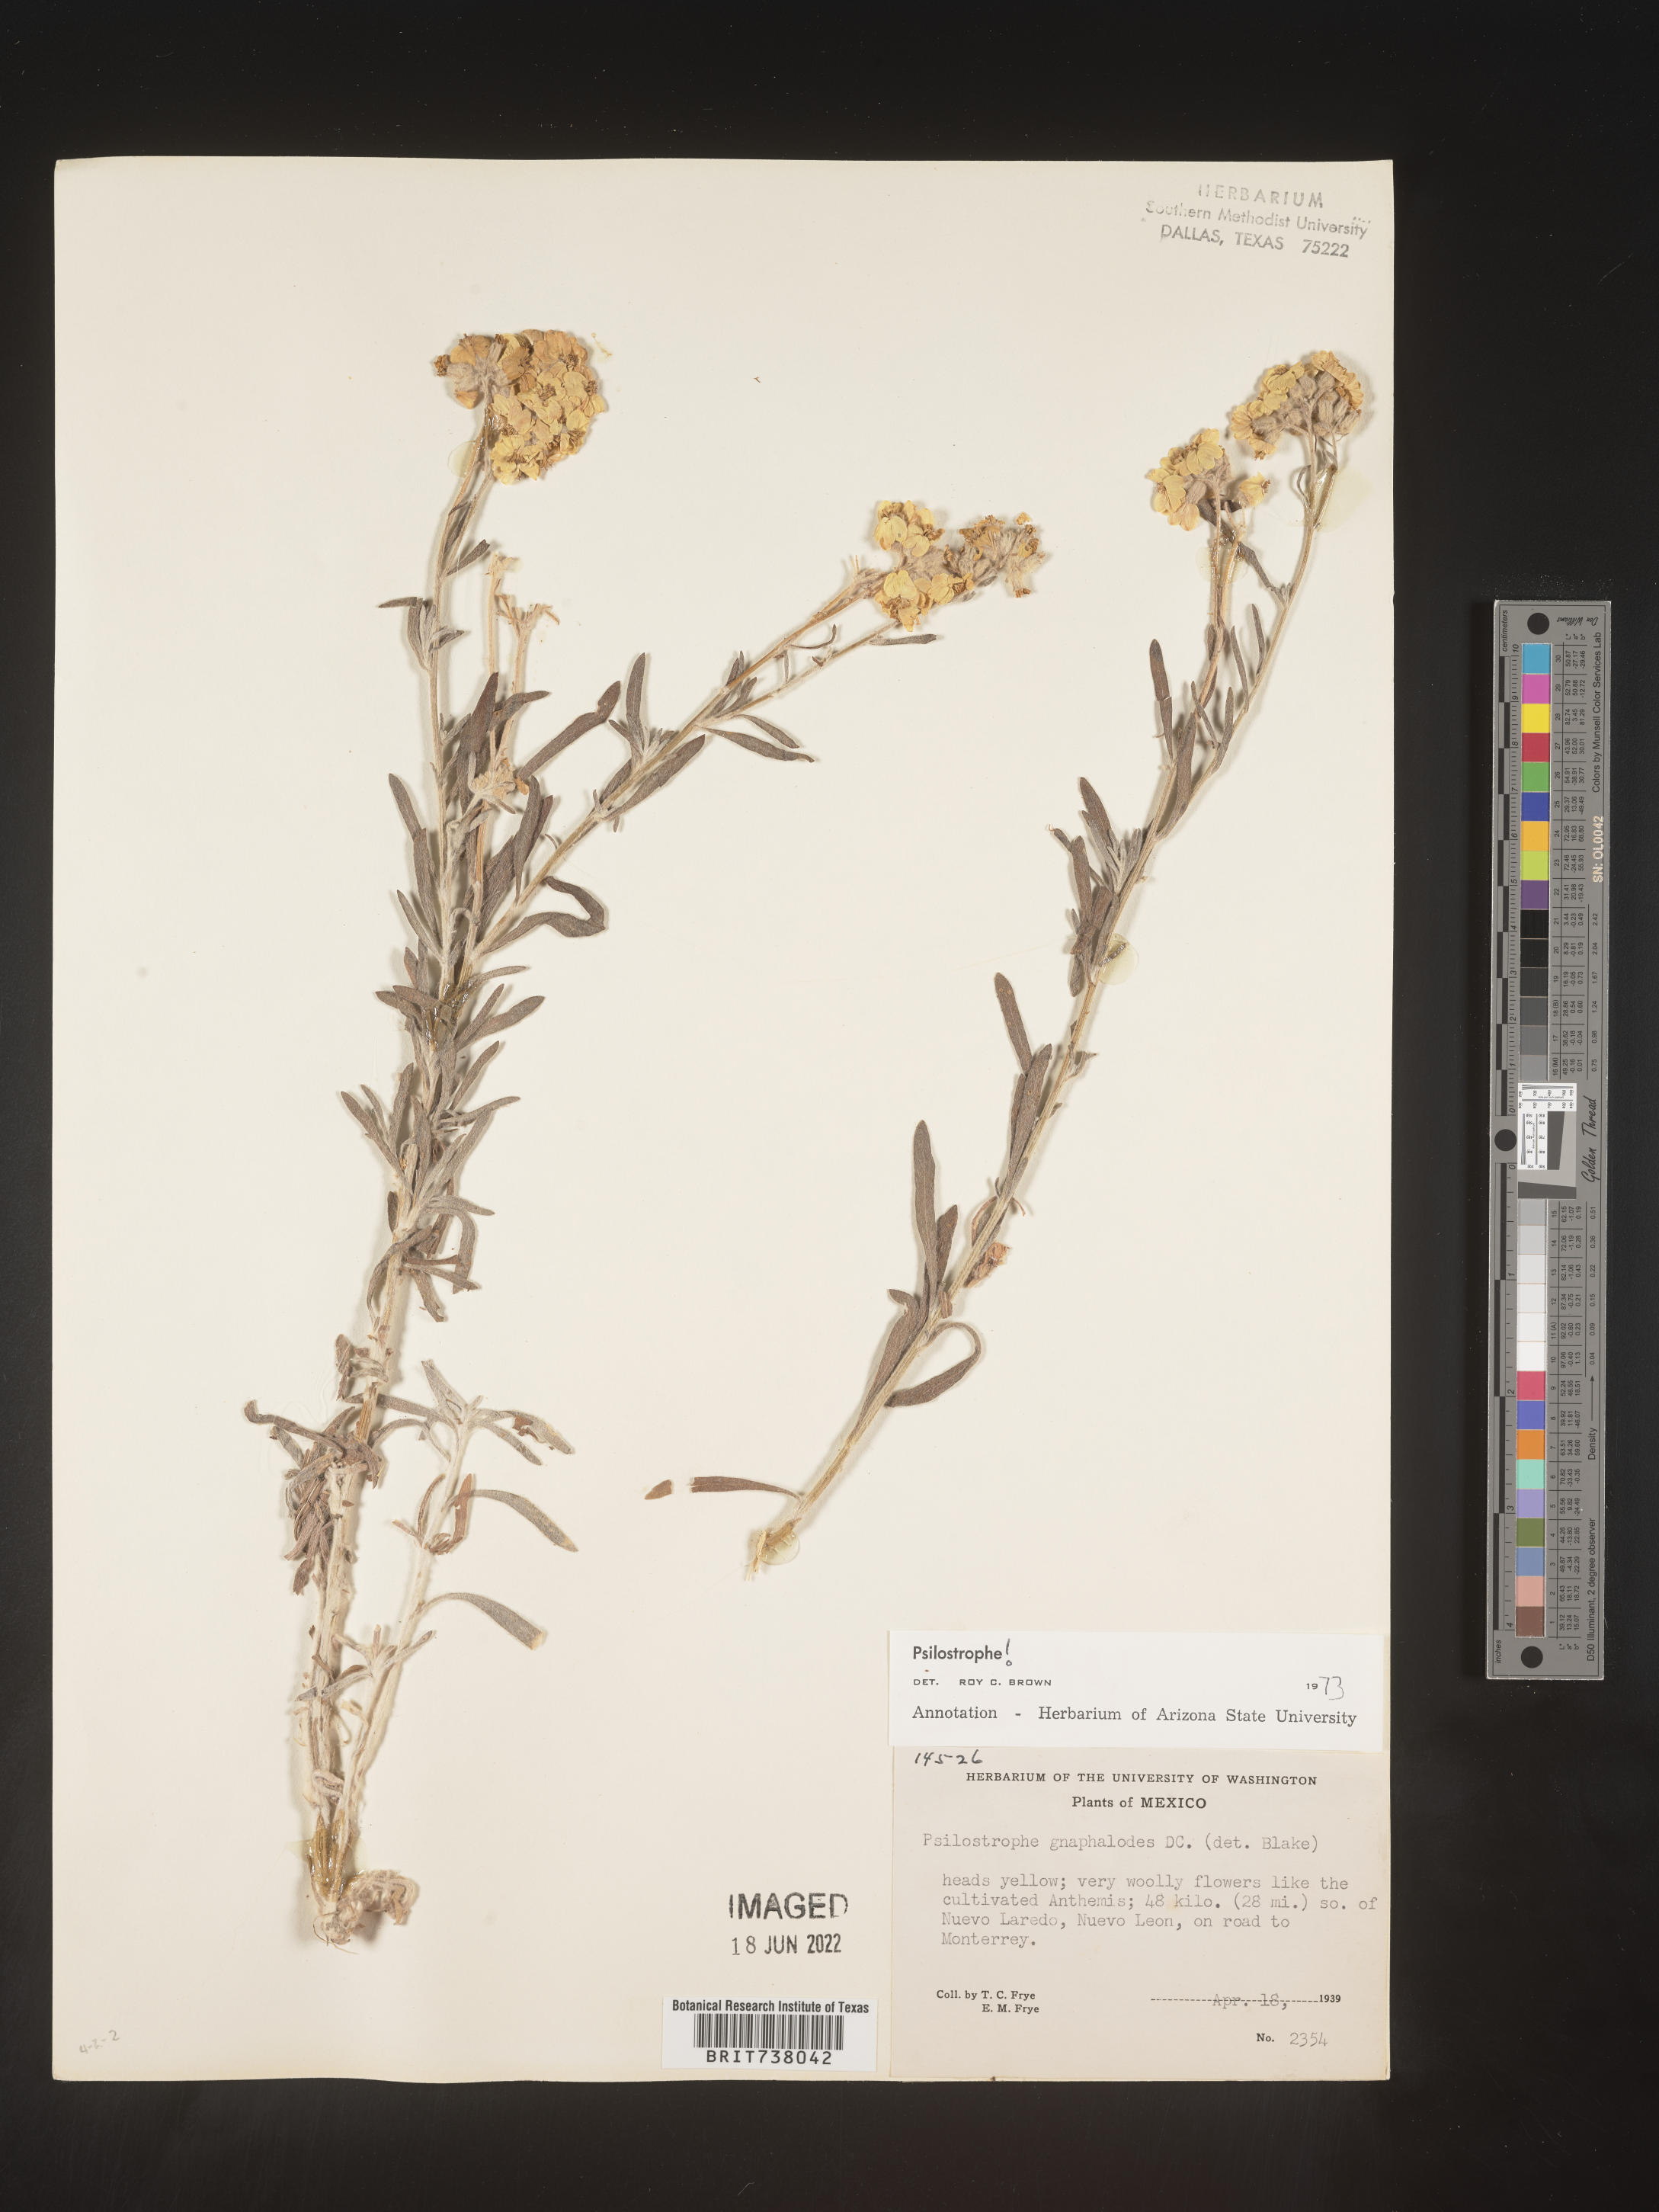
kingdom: Plantae
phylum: Tracheophyta
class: Magnoliopsida
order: Asterales
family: Asteraceae
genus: Psilostrophe
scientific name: Psilostrophe
